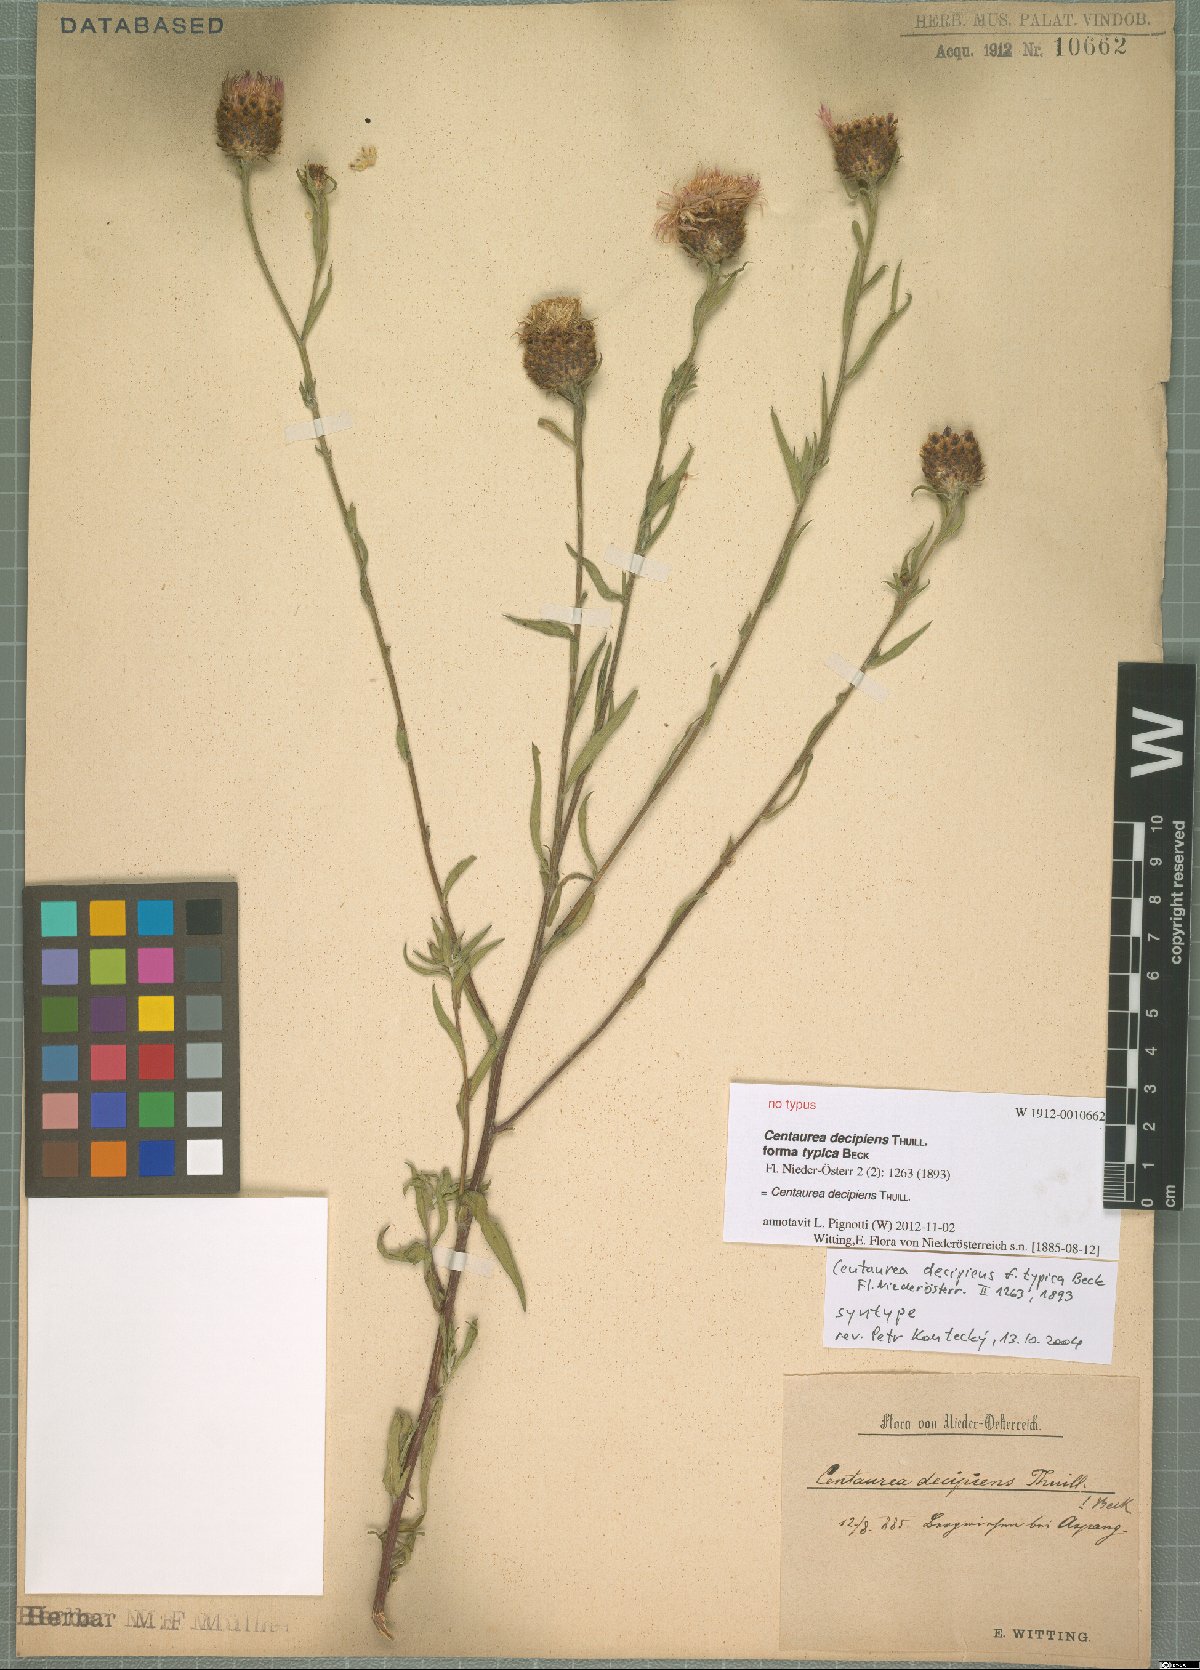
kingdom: Plantae
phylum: Tracheophyta
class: Magnoliopsida
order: Asterales
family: Asteraceae
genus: Centaurea
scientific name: Centaurea decipiens
